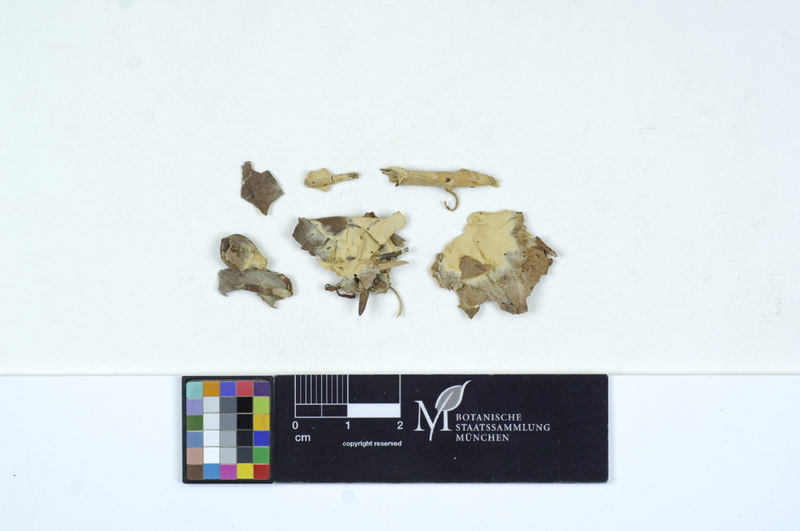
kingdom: Fungi
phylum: Basidiomycota
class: Agaricomycetes
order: Sebacinales
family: Sebacinaceae
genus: Sebacina
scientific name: Sebacina incrustans
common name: Enveloping crust
